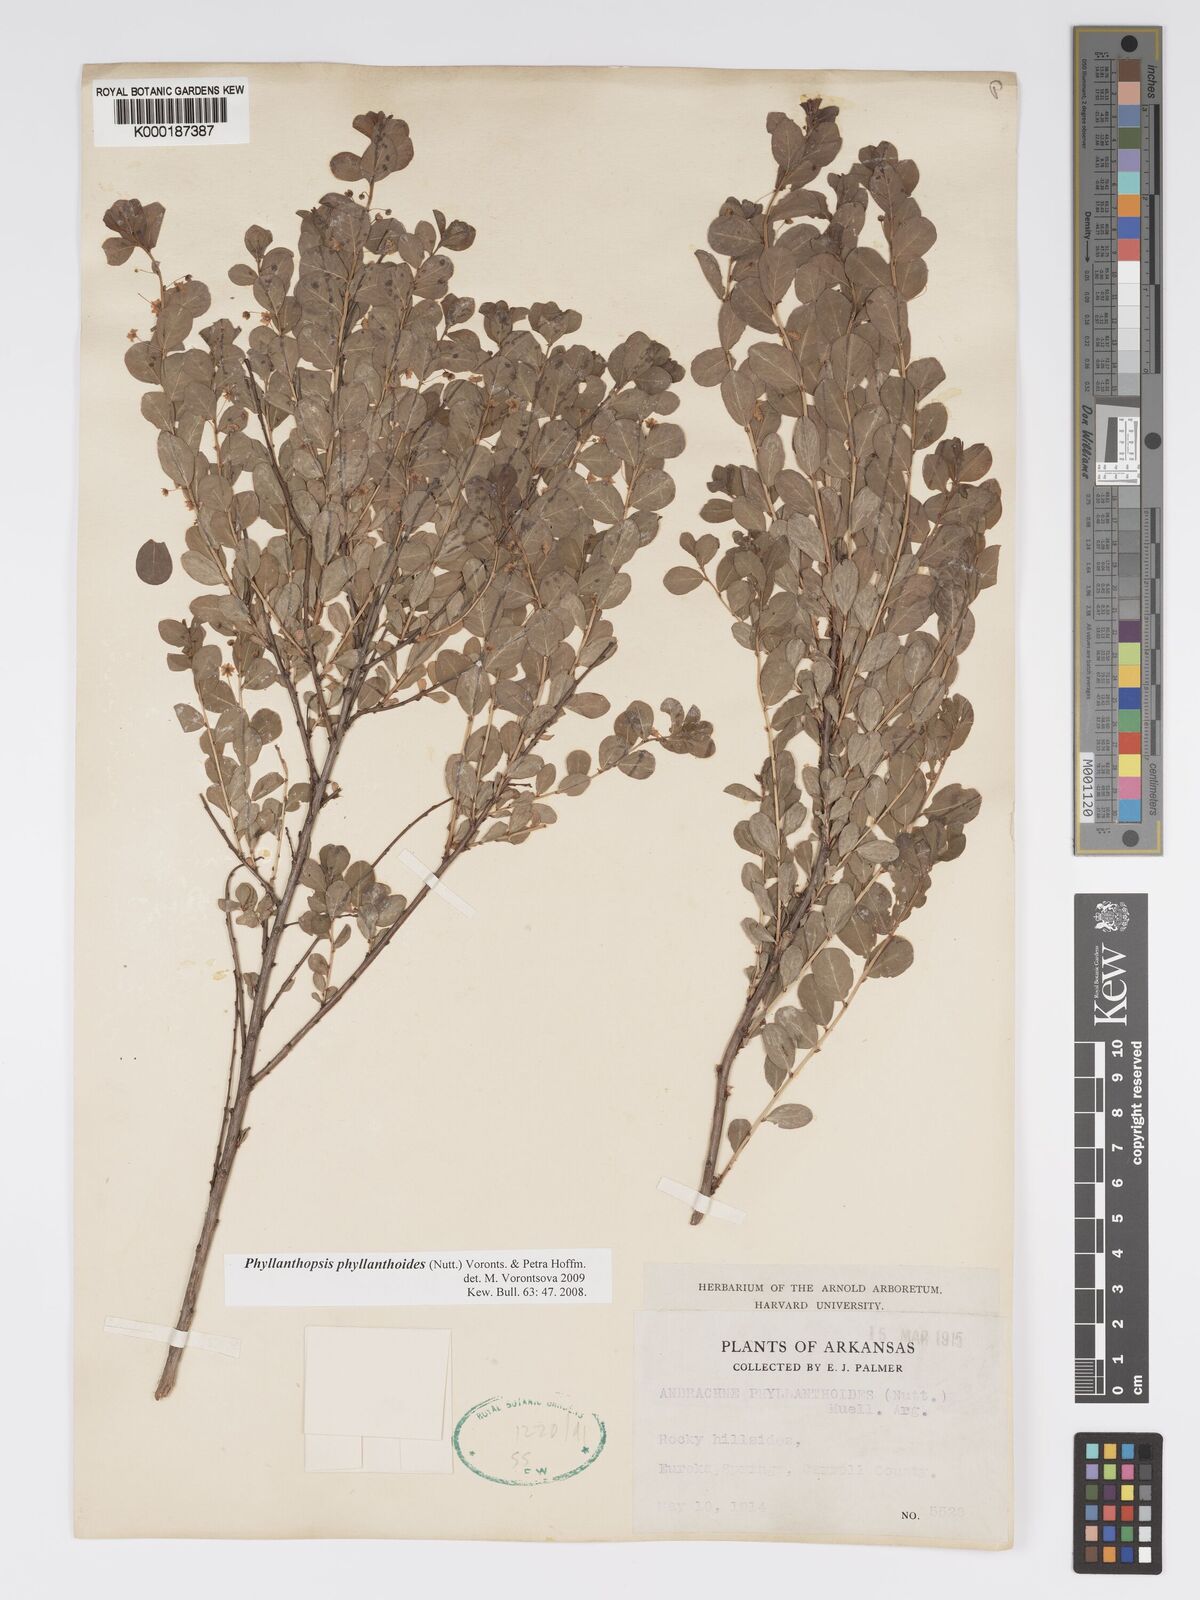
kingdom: Plantae
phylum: Tracheophyta
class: Magnoliopsida
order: Malpighiales
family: Phyllanthaceae
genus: Andrachne
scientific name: Andrachne
